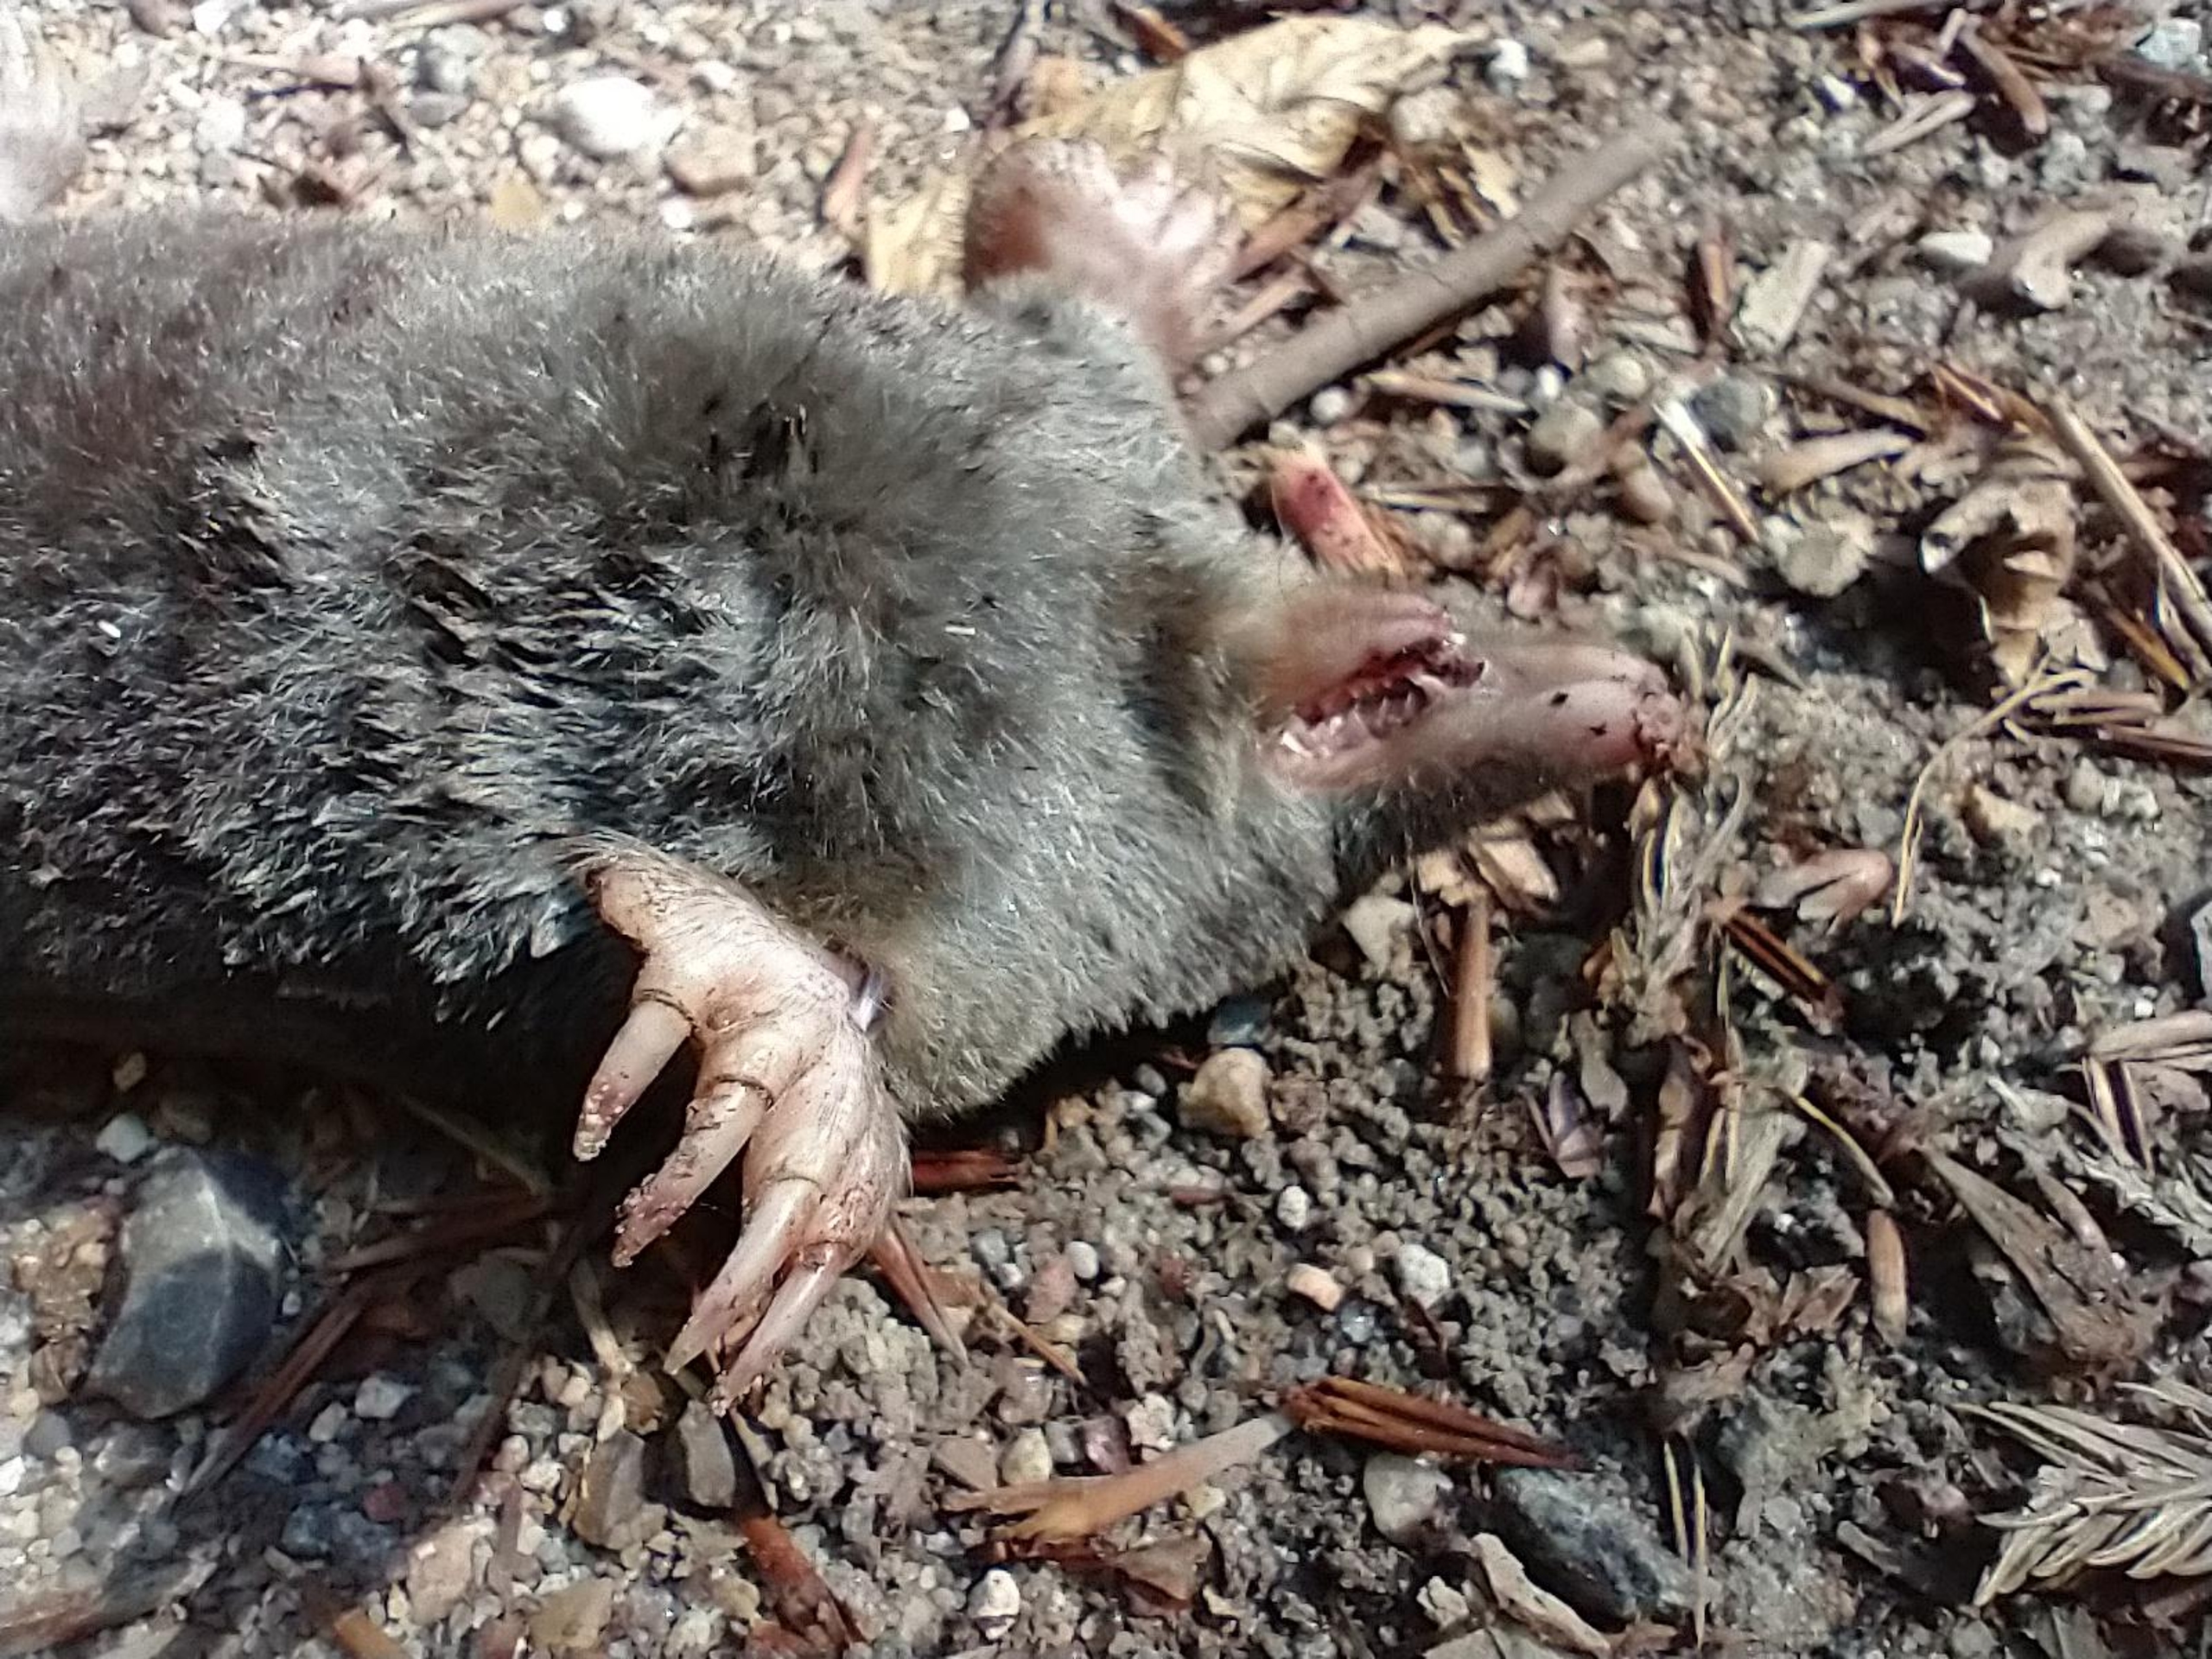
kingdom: Animalia
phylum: Chordata
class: Mammalia
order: Soricomorpha
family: Talpidae
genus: Talpa
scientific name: Talpa europaea
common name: Muldvarp
